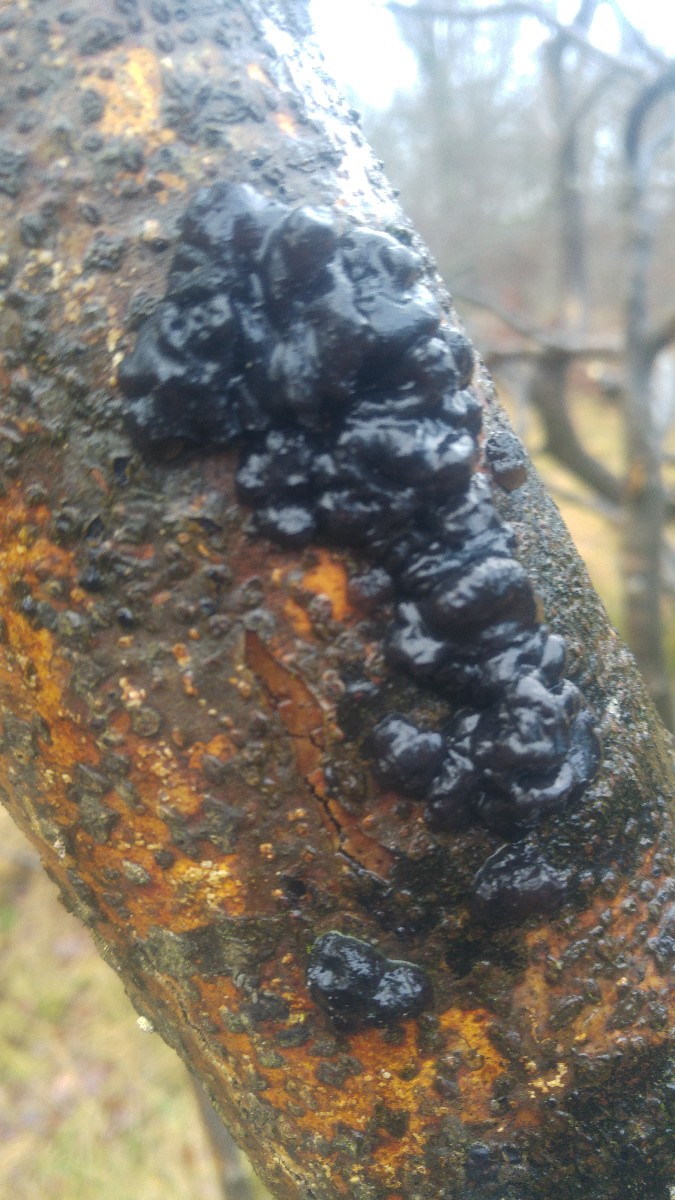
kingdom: Fungi
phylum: Basidiomycota
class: Agaricomycetes
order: Auriculariales
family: Auriculariaceae
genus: Exidia
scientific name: Exidia nigricans
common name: almindelig bævretop
